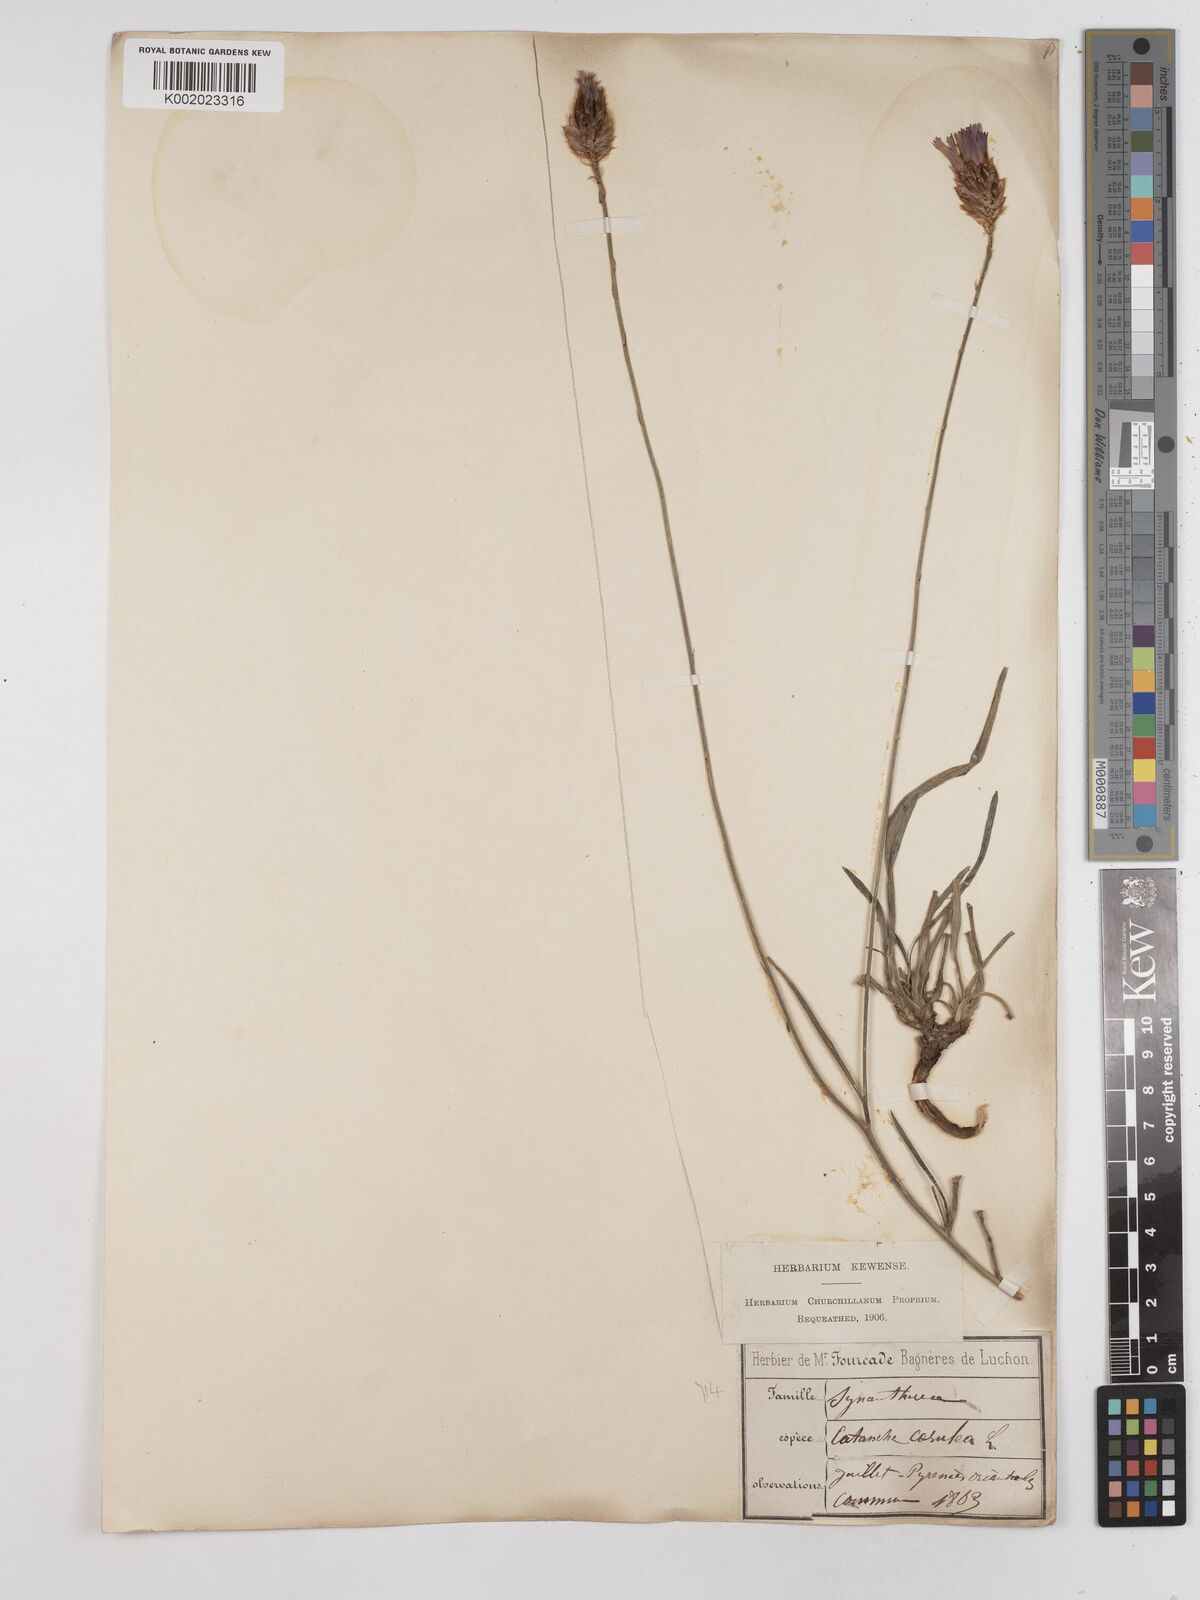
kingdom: Plantae
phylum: Tracheophyta
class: Magnoliopsida
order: Asterales
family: Asteraceae
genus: Catananche
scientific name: Catananche caerulea
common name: Blue cupidone
